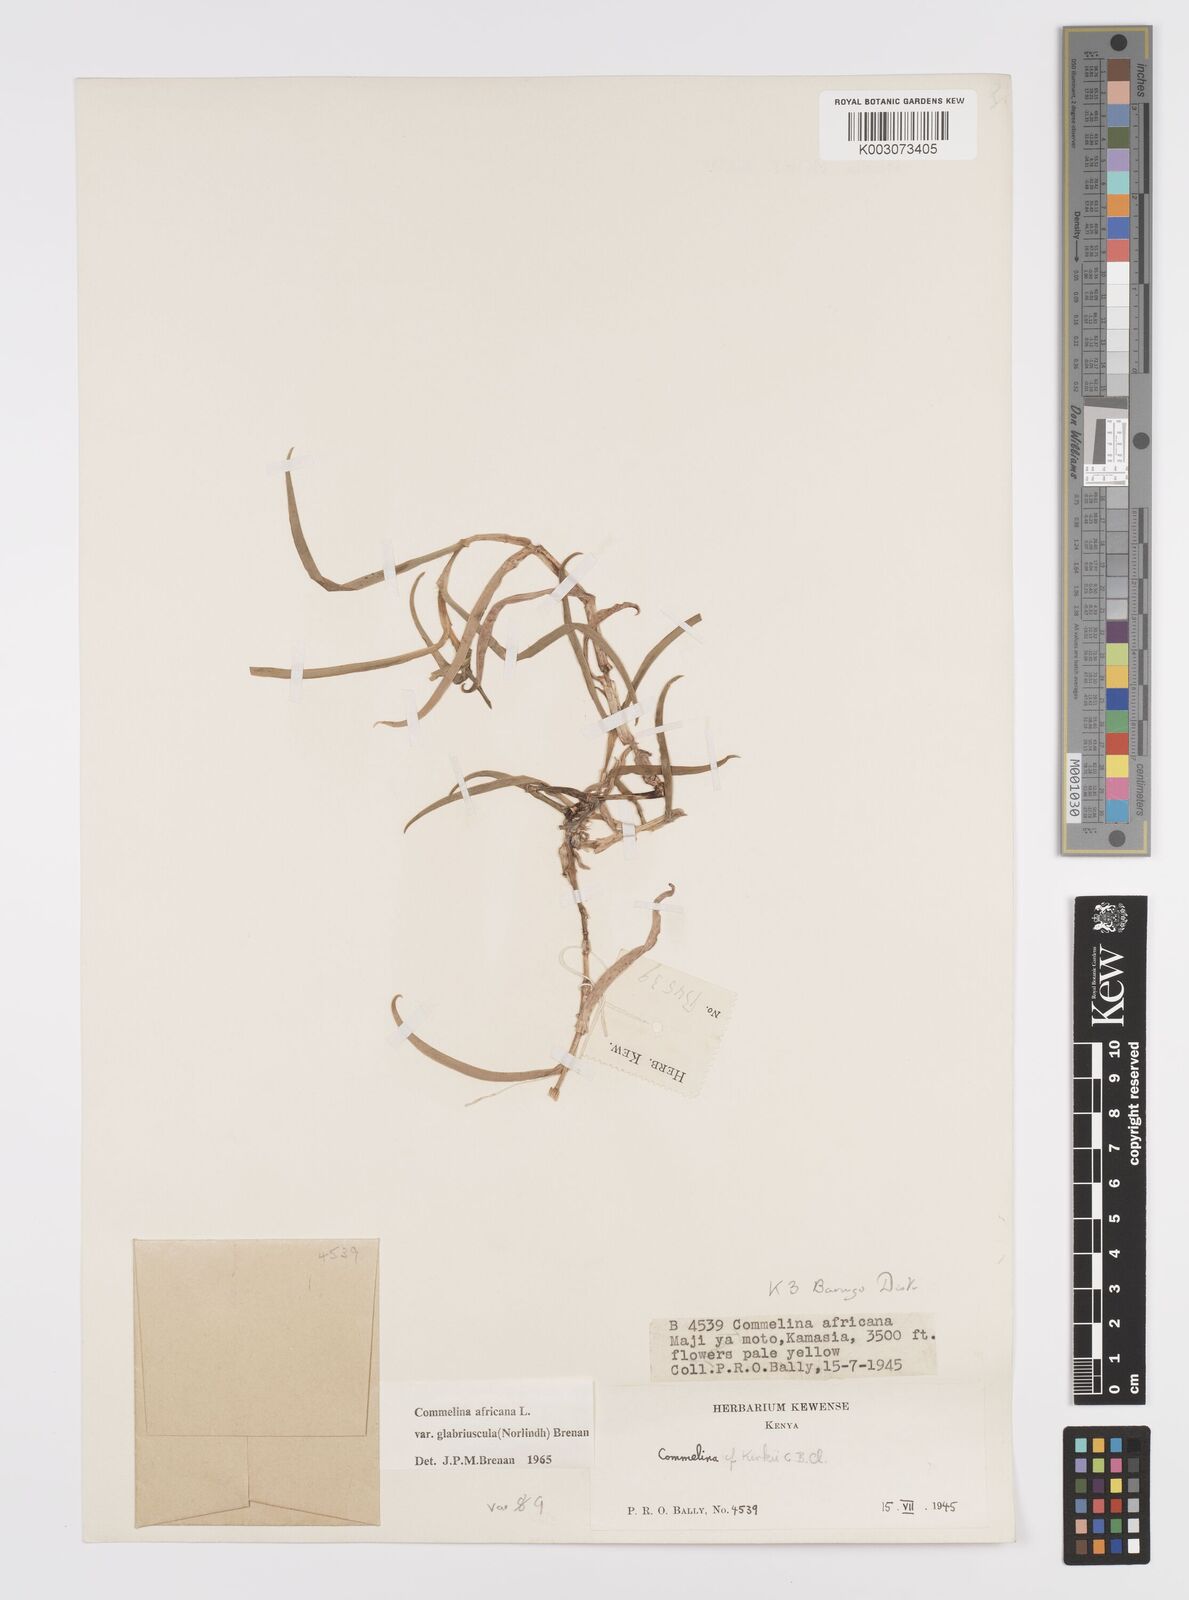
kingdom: Plantae
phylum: Tracheophyta
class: Liliopsida
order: Commelinales
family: Commelinaceae
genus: Commelina
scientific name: Commelina africana
